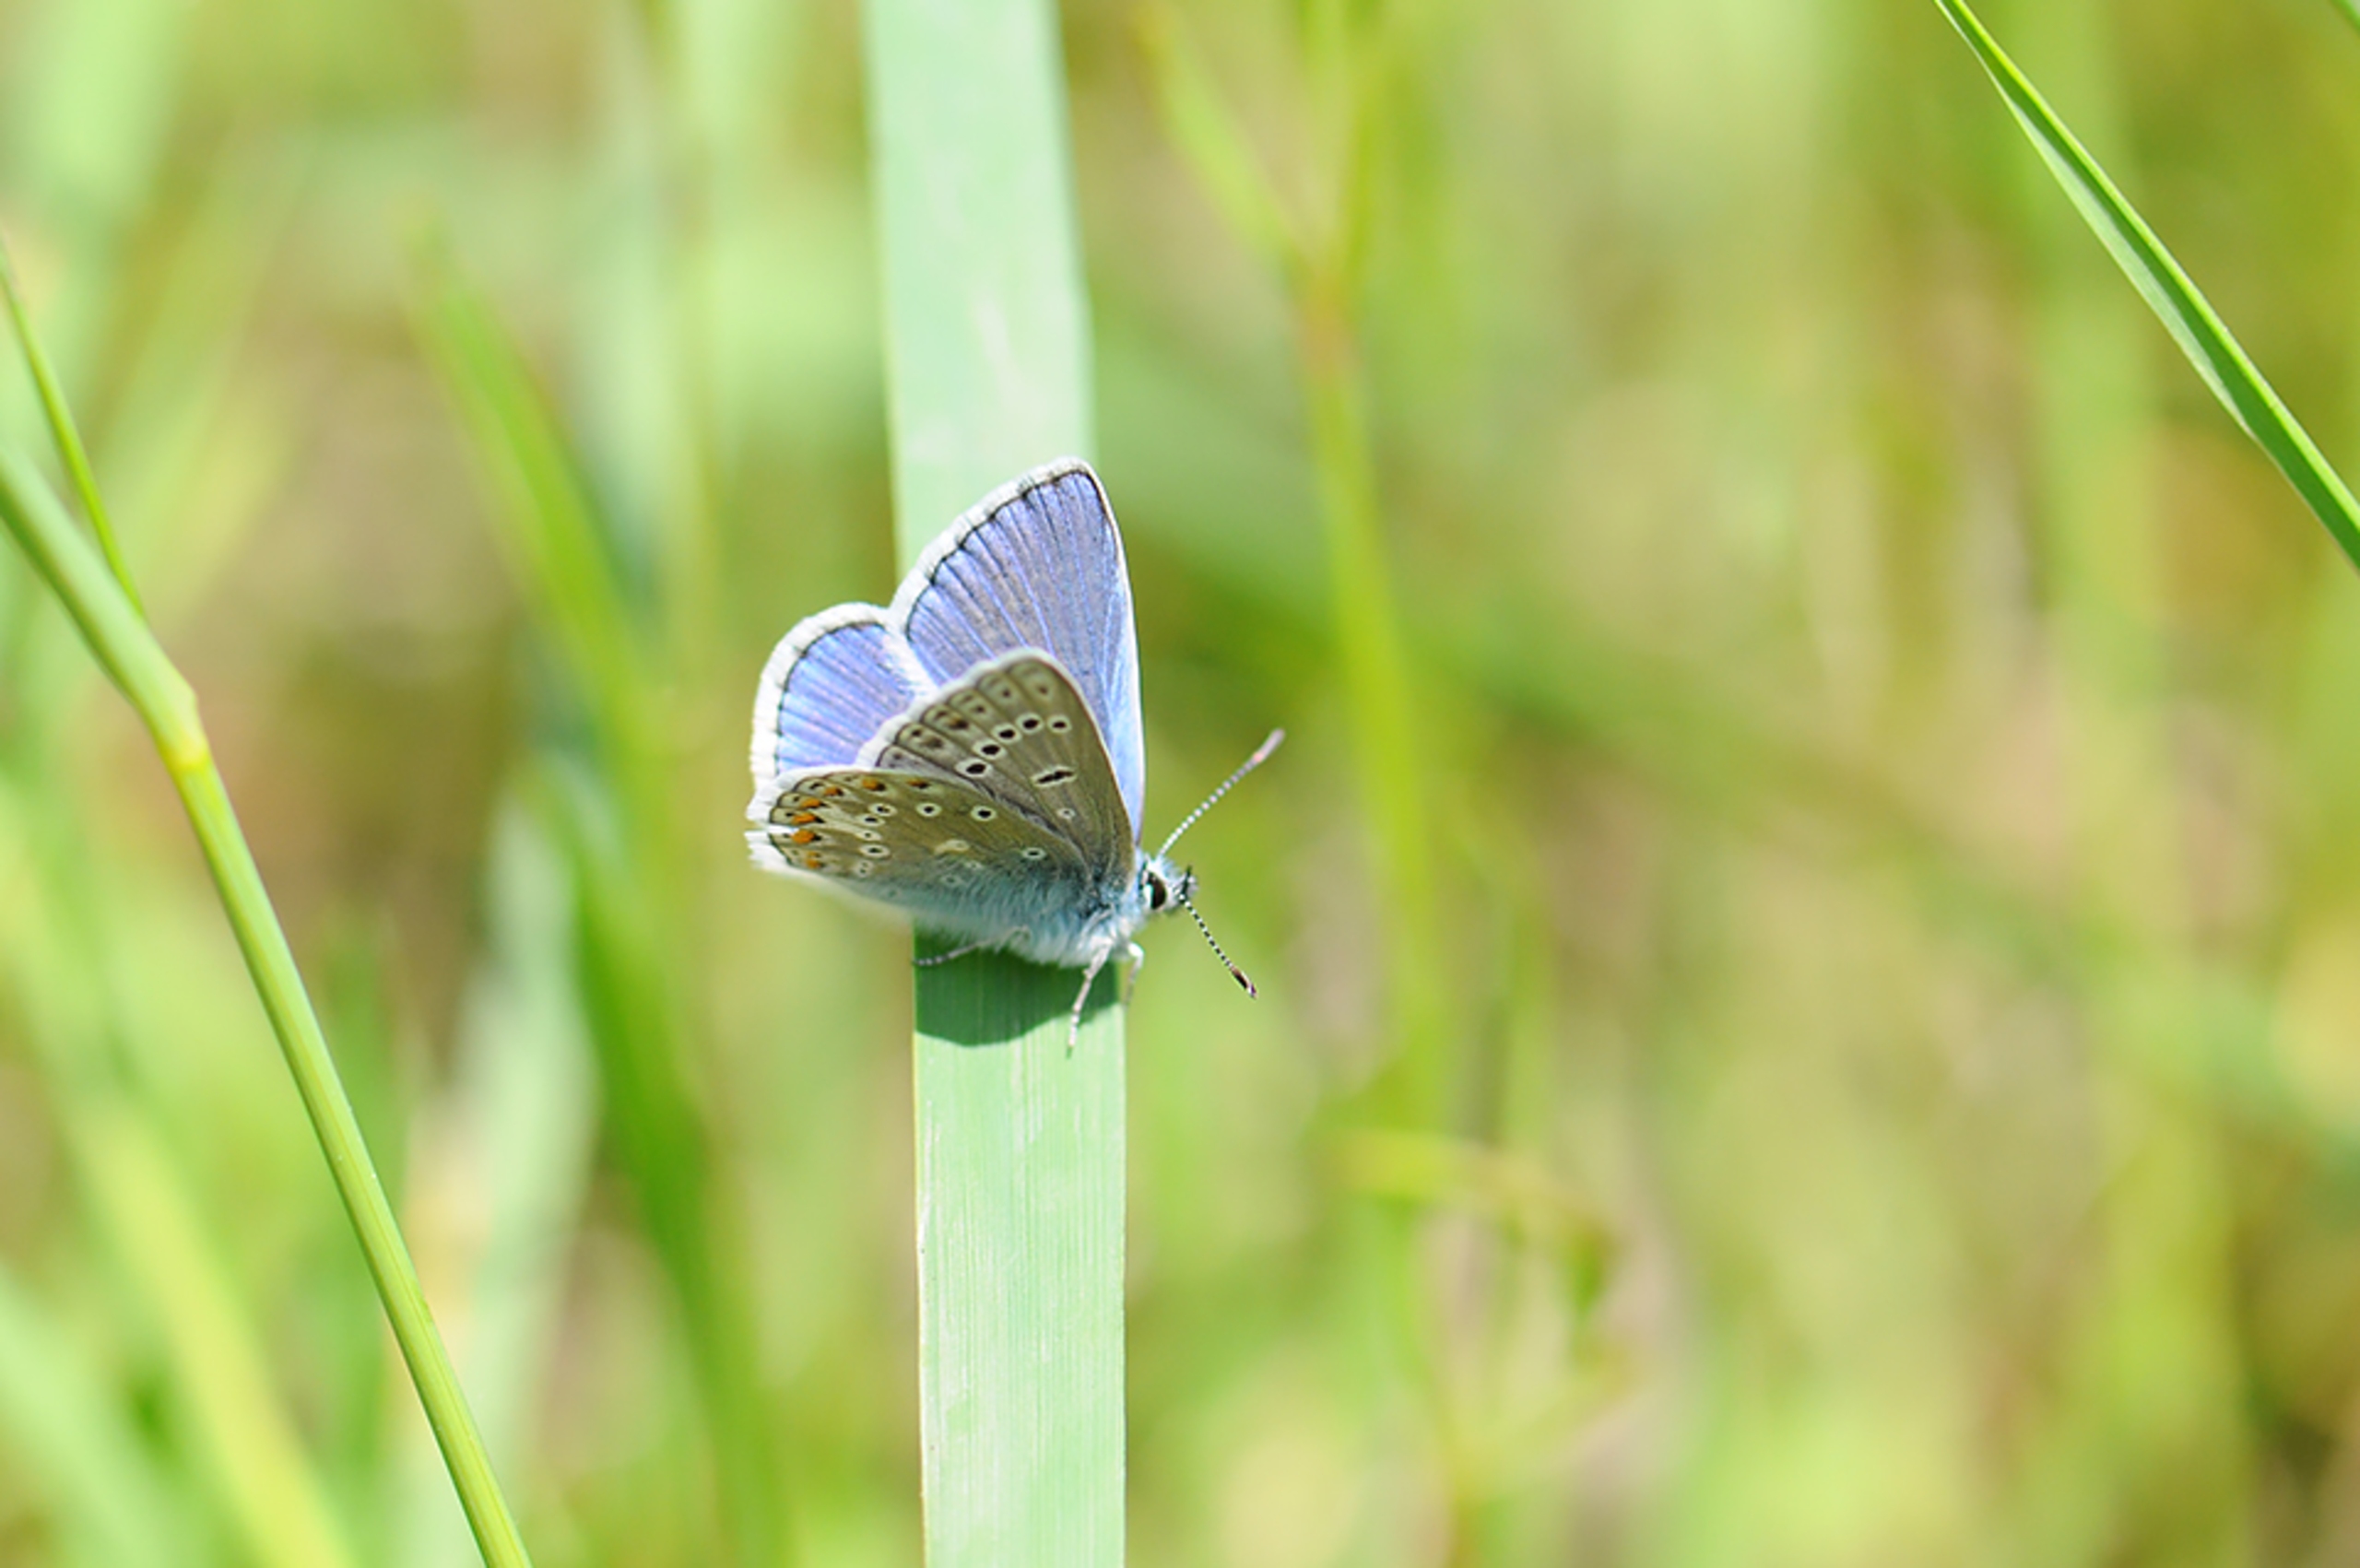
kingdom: Animalia
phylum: Arthropoda
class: Insecta
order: Lepidoptera
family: Lycaenidae
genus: Polyommatus
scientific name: Polyommatus icarus
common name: Almindelig blåfugl
